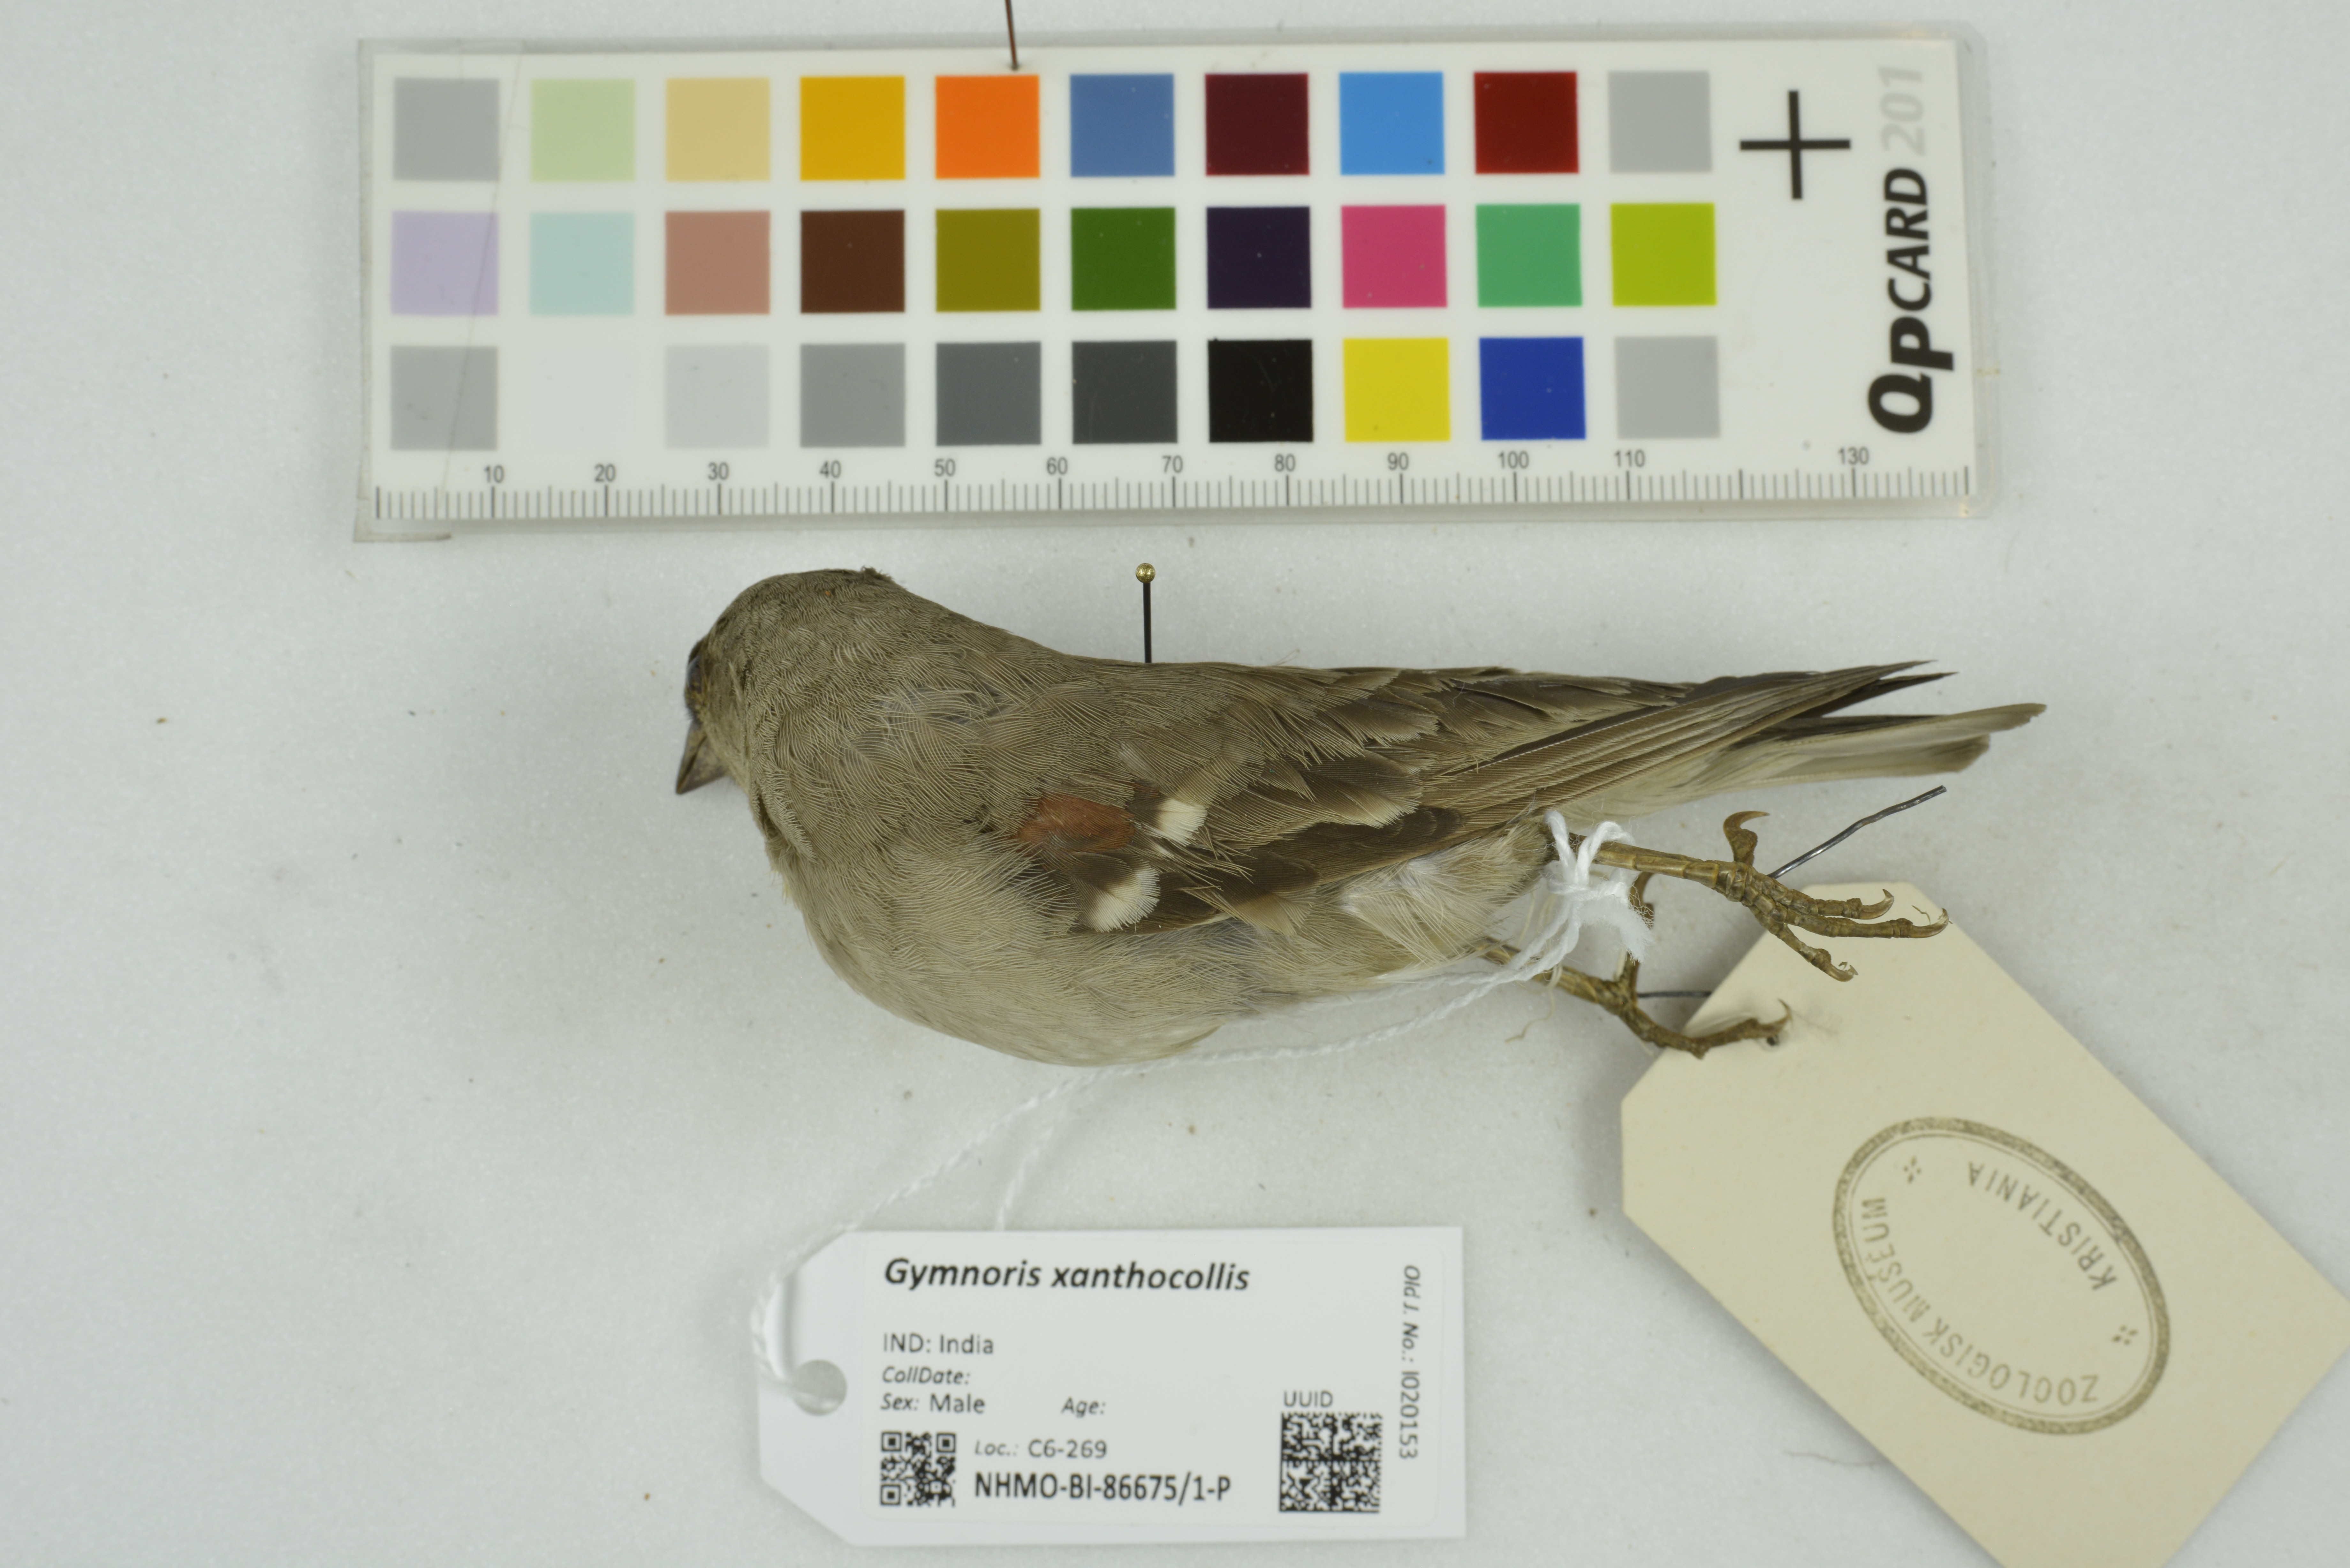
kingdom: Animalia
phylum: Chordata
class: Aves
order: Passeriformes
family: Passeridae
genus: Gymnoris
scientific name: Gymnoris xanthocollis
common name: Yellow-throated sparrow
